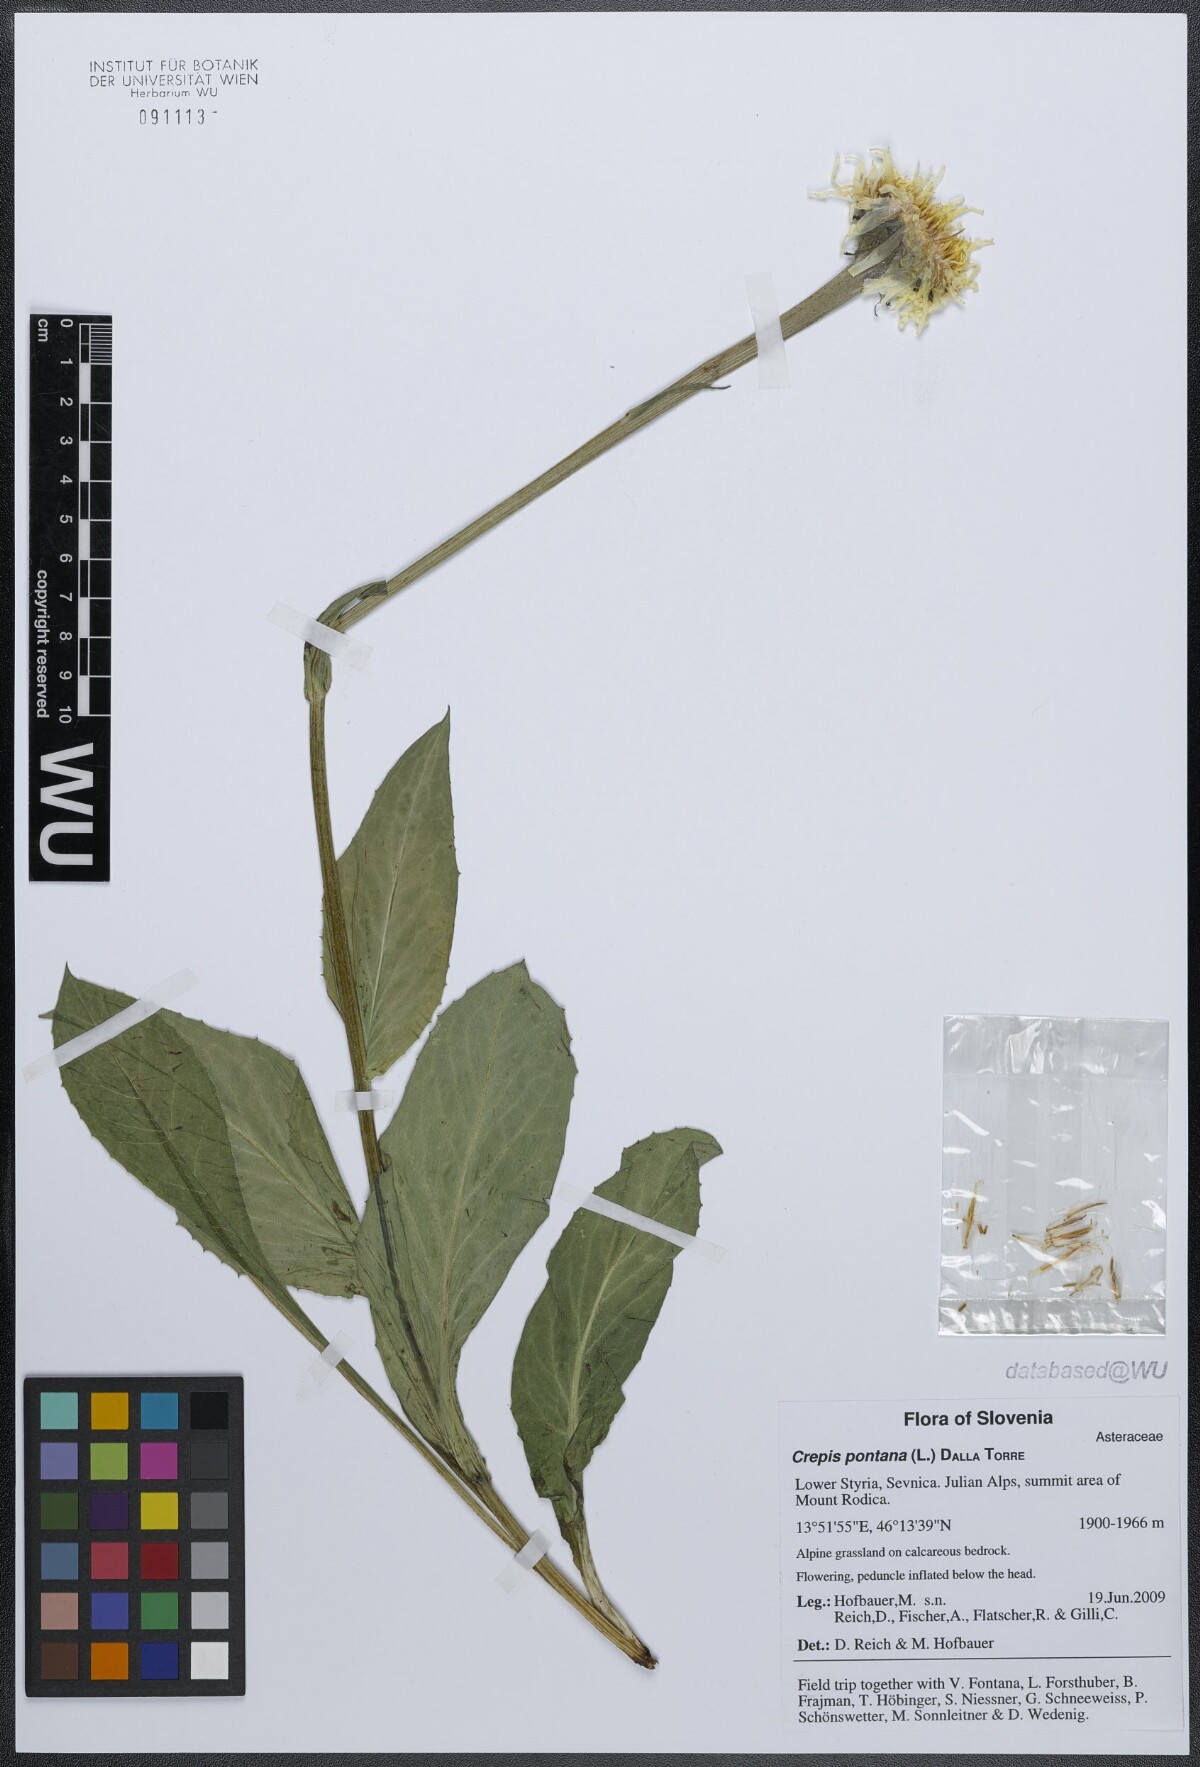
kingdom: Plantae
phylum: Tracheophyta
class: Magnoliopsida
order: Asterales
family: Asteraceae
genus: Crepis
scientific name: Crepis pontana
